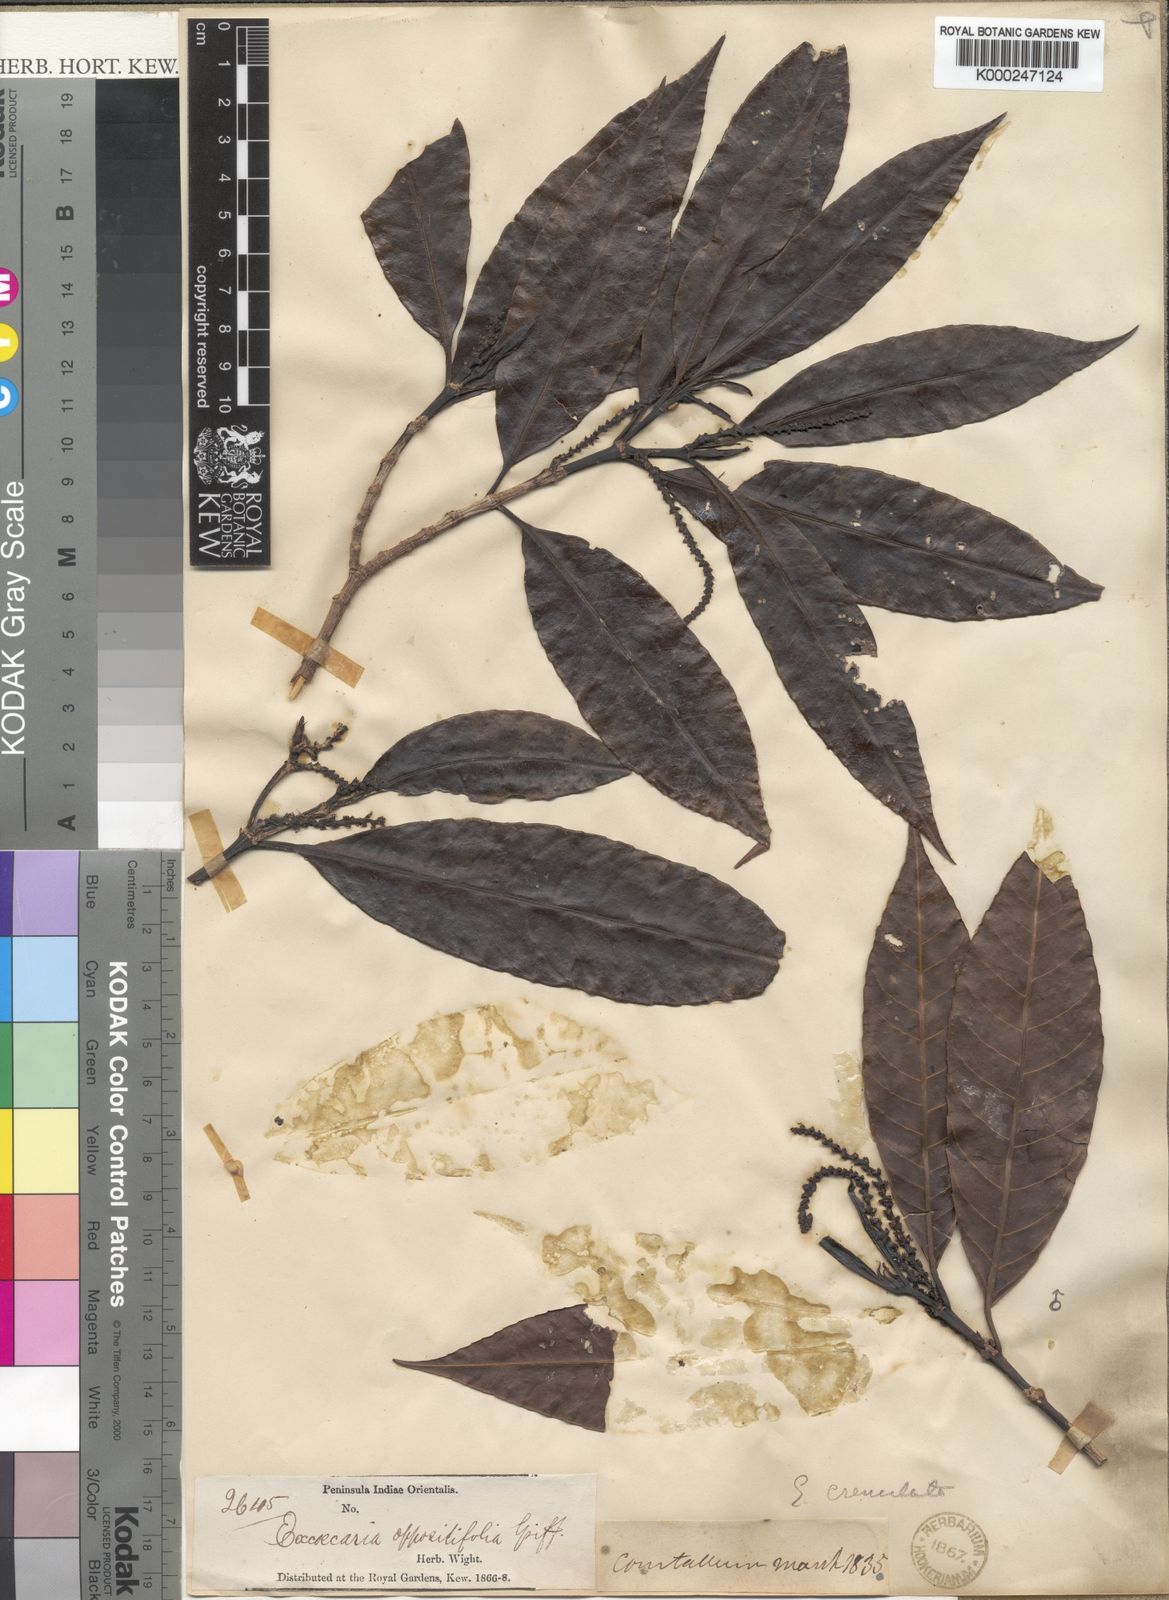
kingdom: Plantae
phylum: Tracheophyta
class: Magnoliopsida
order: Malpighiales
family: Euphorbiaceae
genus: Excoecaria
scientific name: Excoecaria oppositifolia
